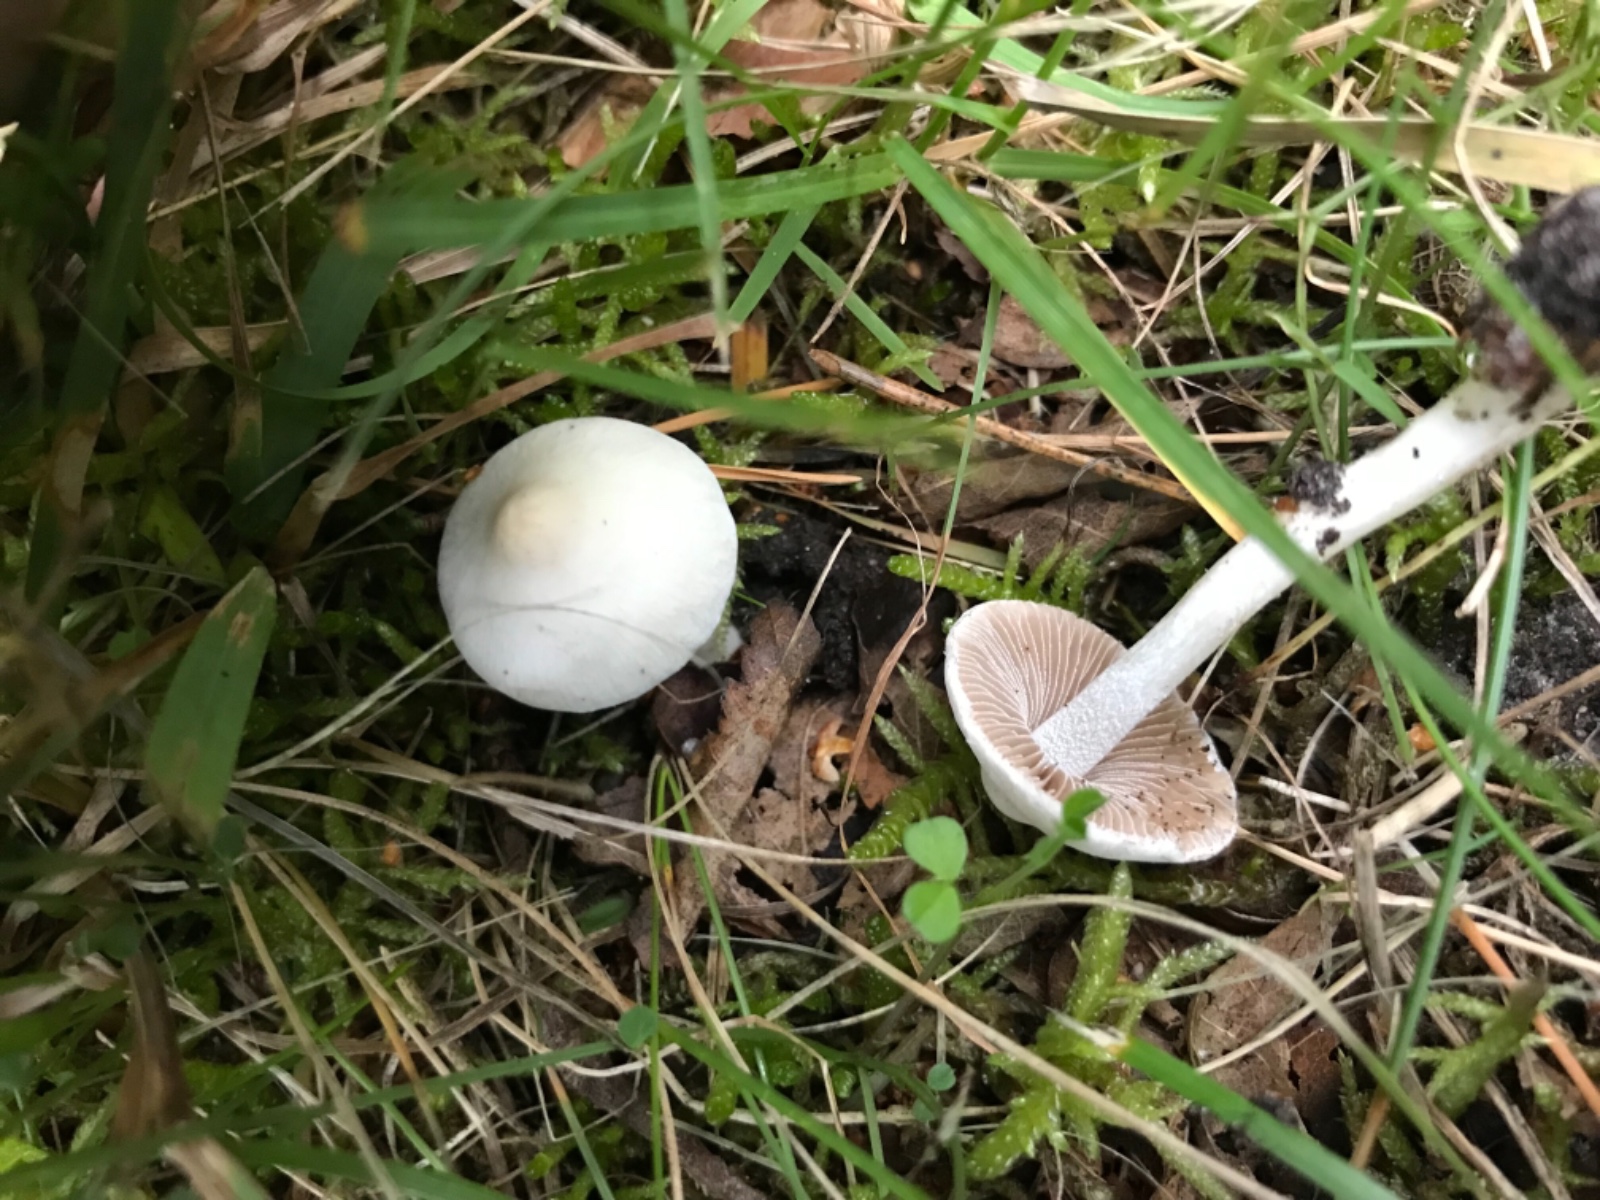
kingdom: Fungi
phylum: Basidiomycota
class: Agaricomycetes
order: Agaricales
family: Inocybaceae
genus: Inocybe
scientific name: Inocybe
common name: almindelig trævlhat
